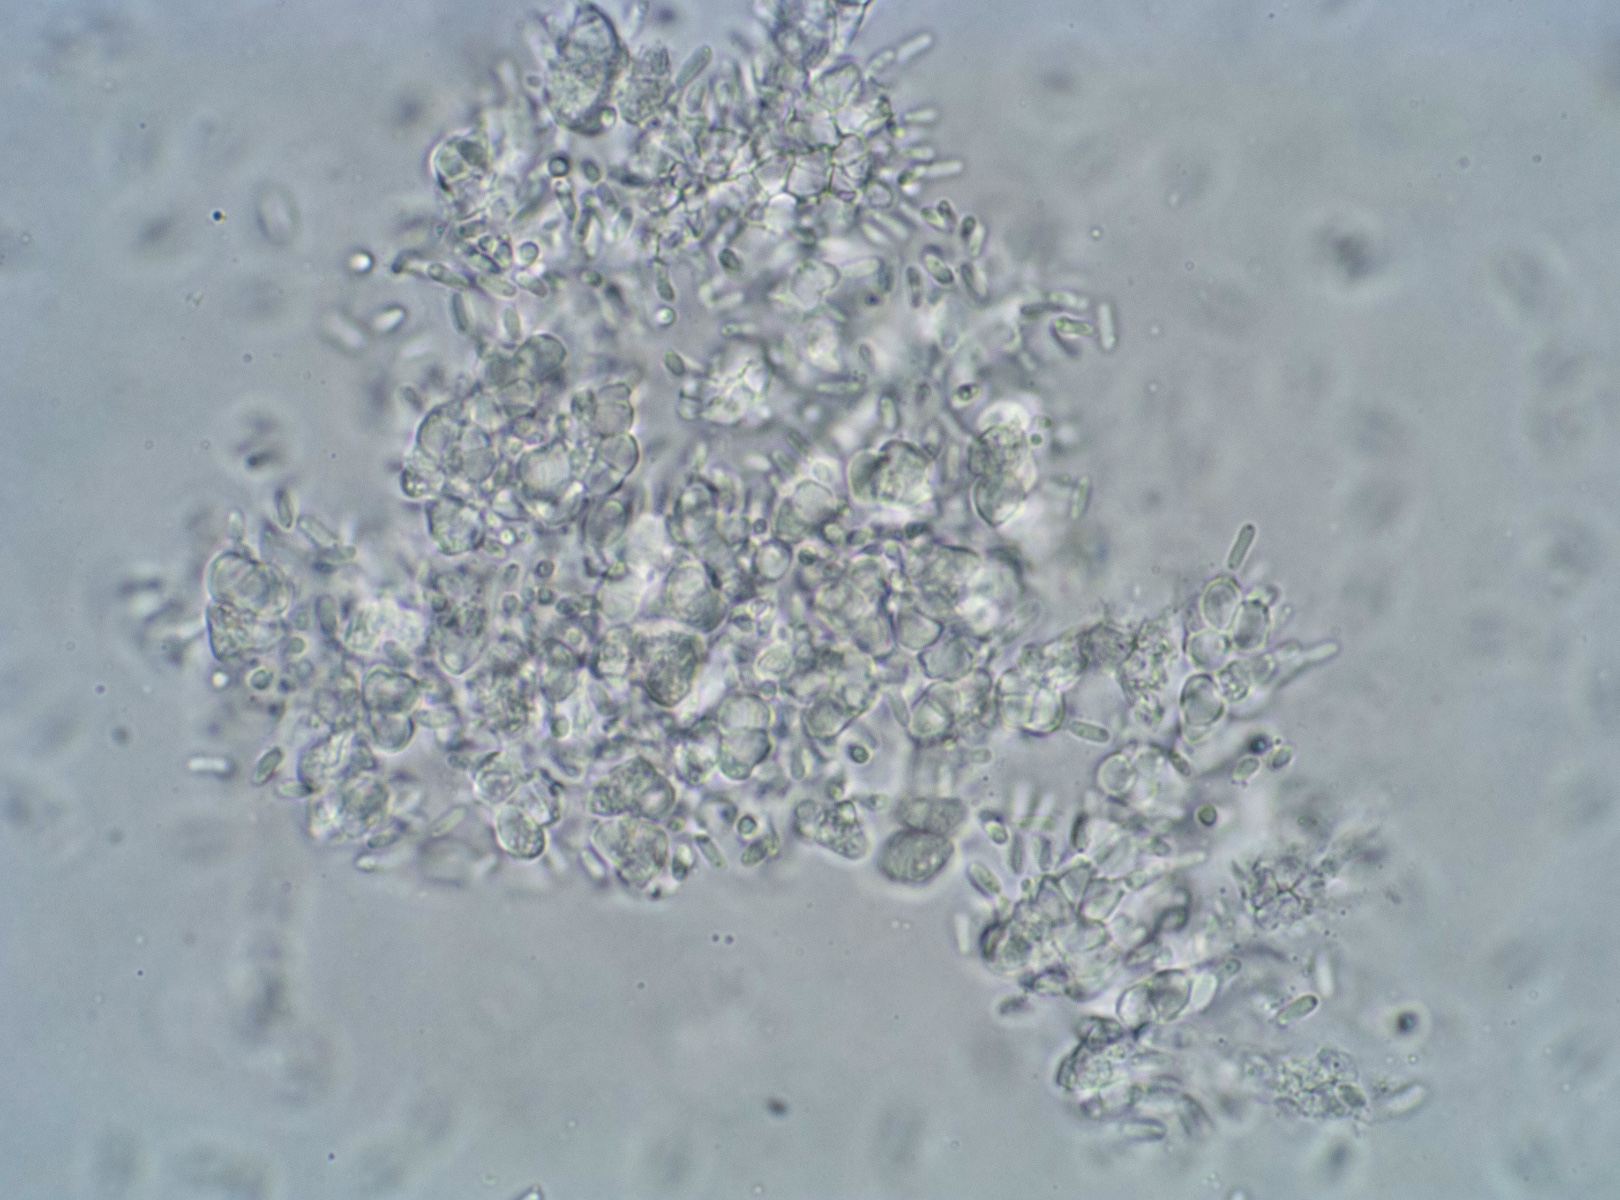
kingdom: Fungi
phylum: Ascomycota
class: Dothideomycetes
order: Pleosporales
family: Leptosphaeriaceae
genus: Leptosphaeria
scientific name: Leptosphaeria macrocapsa
